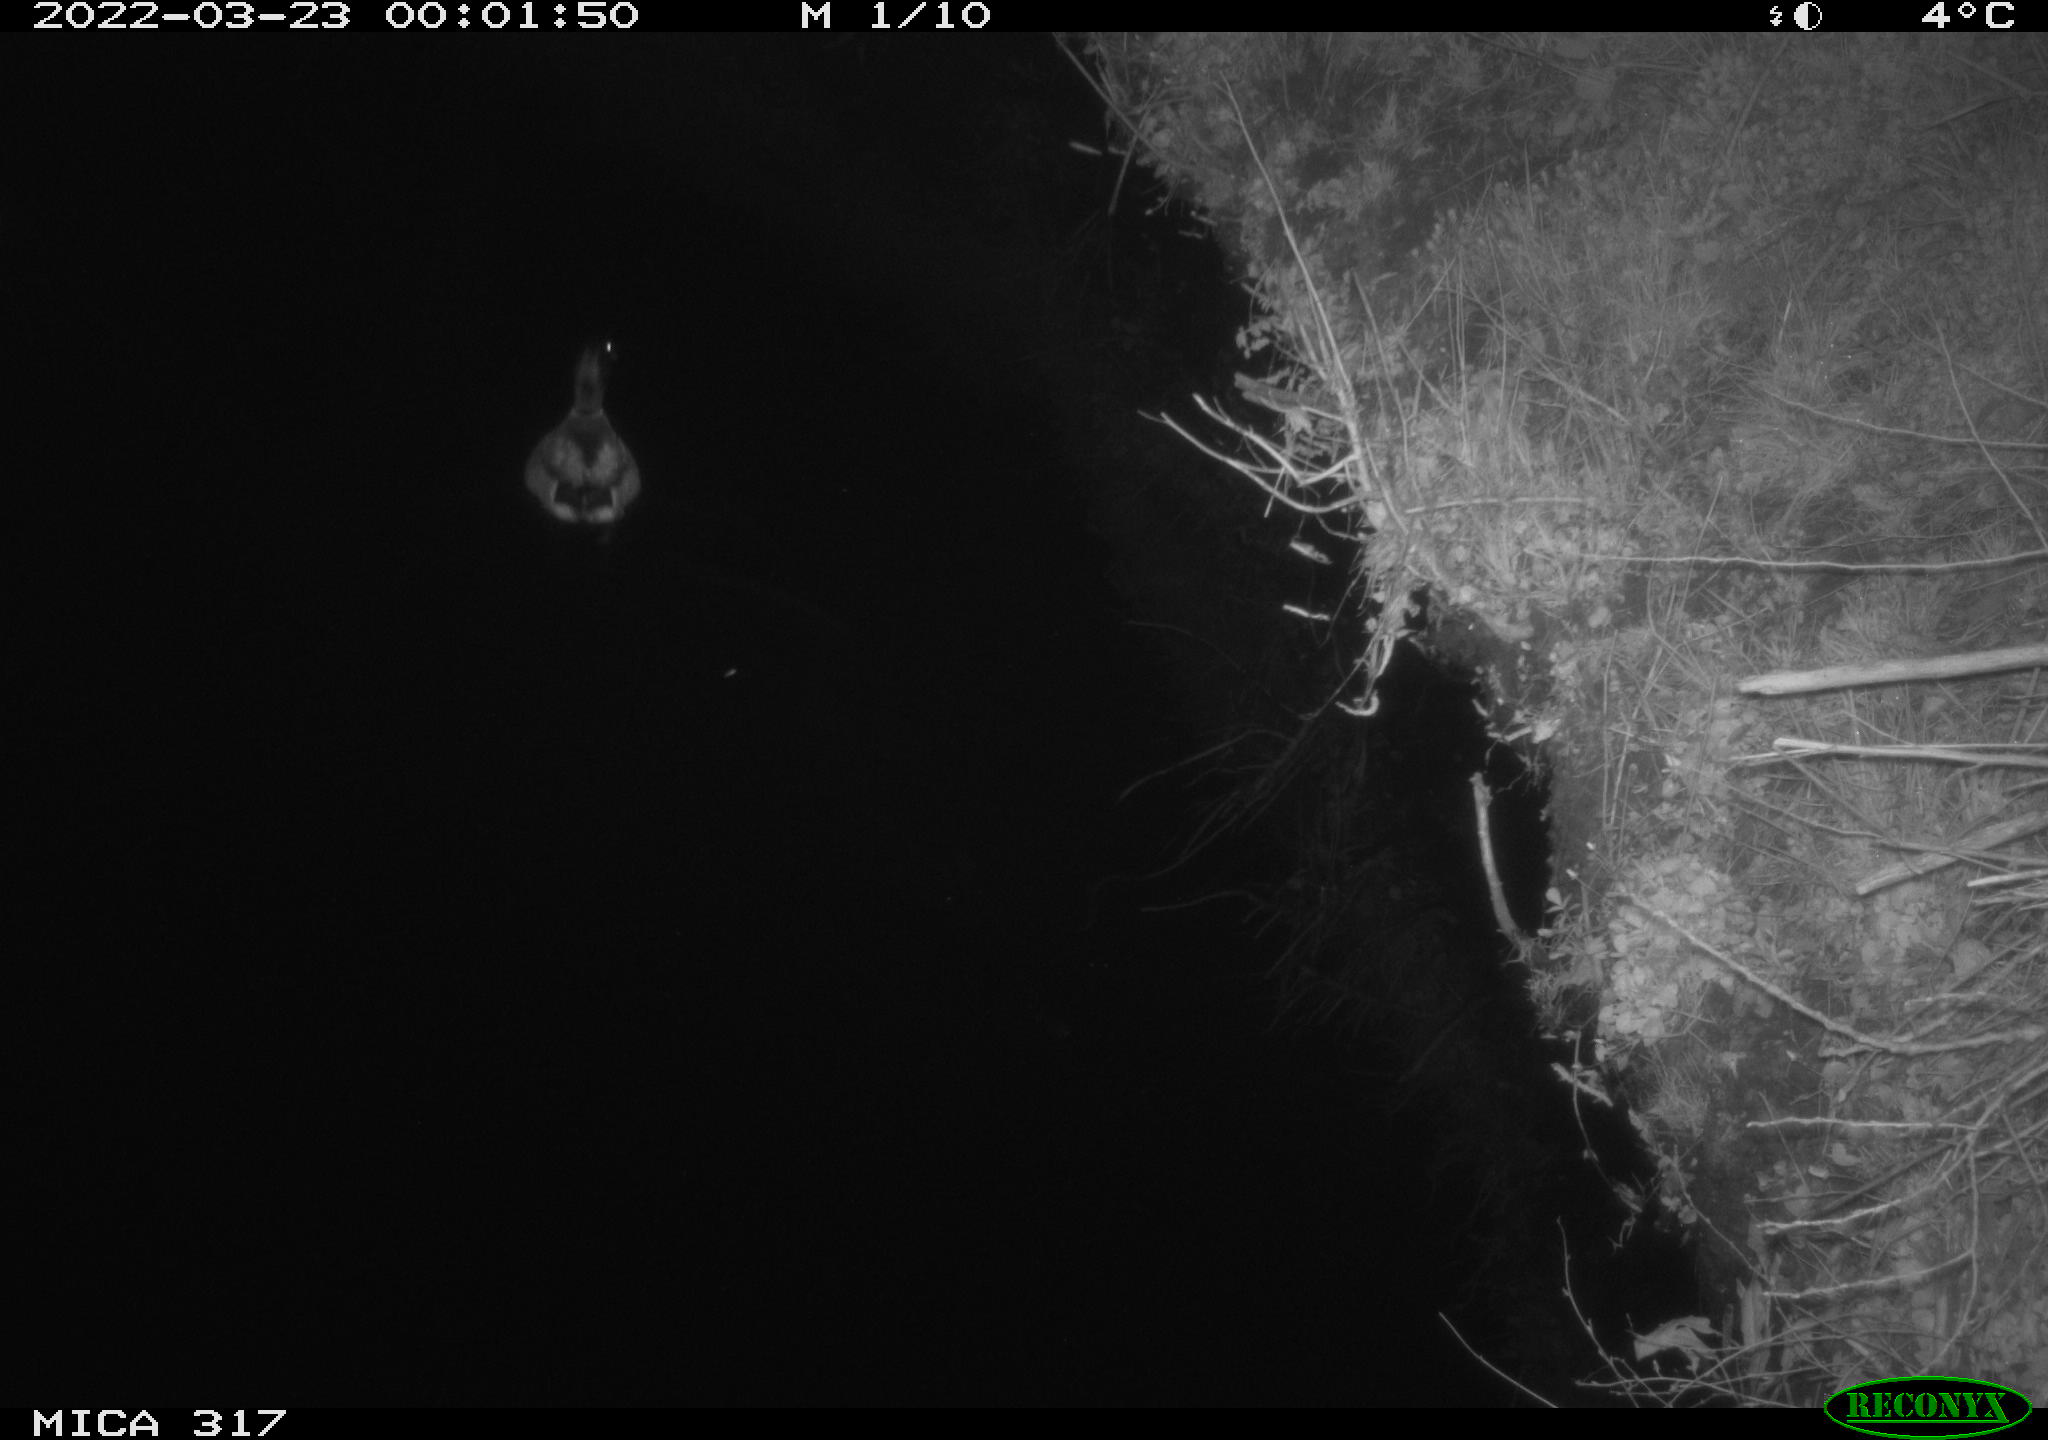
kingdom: Animalia
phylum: Chordata
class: Aves
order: Anseriformes
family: Anatidae
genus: Anas
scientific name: Anas platyrhynchos
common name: Mallard
